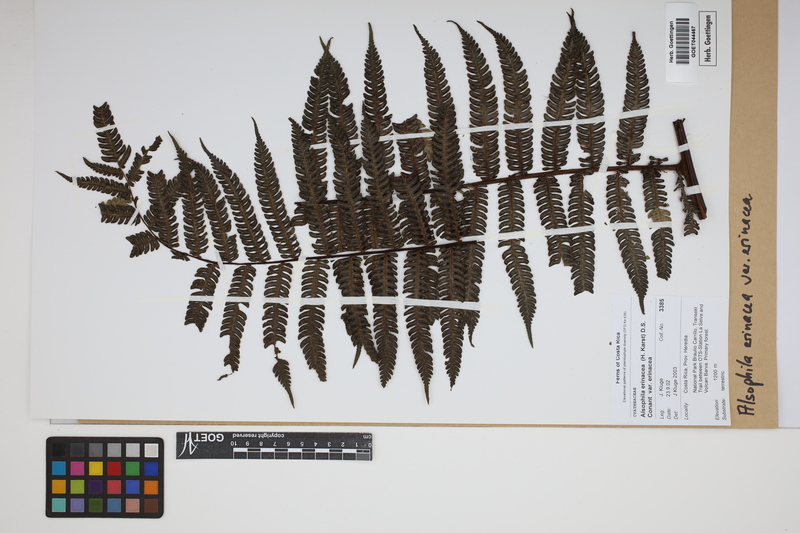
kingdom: Plantae
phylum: Tracheophyta
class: Polypodiopsida
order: Cyatheales
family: Cyatheaceae
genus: Alsophila
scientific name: Alsophila erinacea
